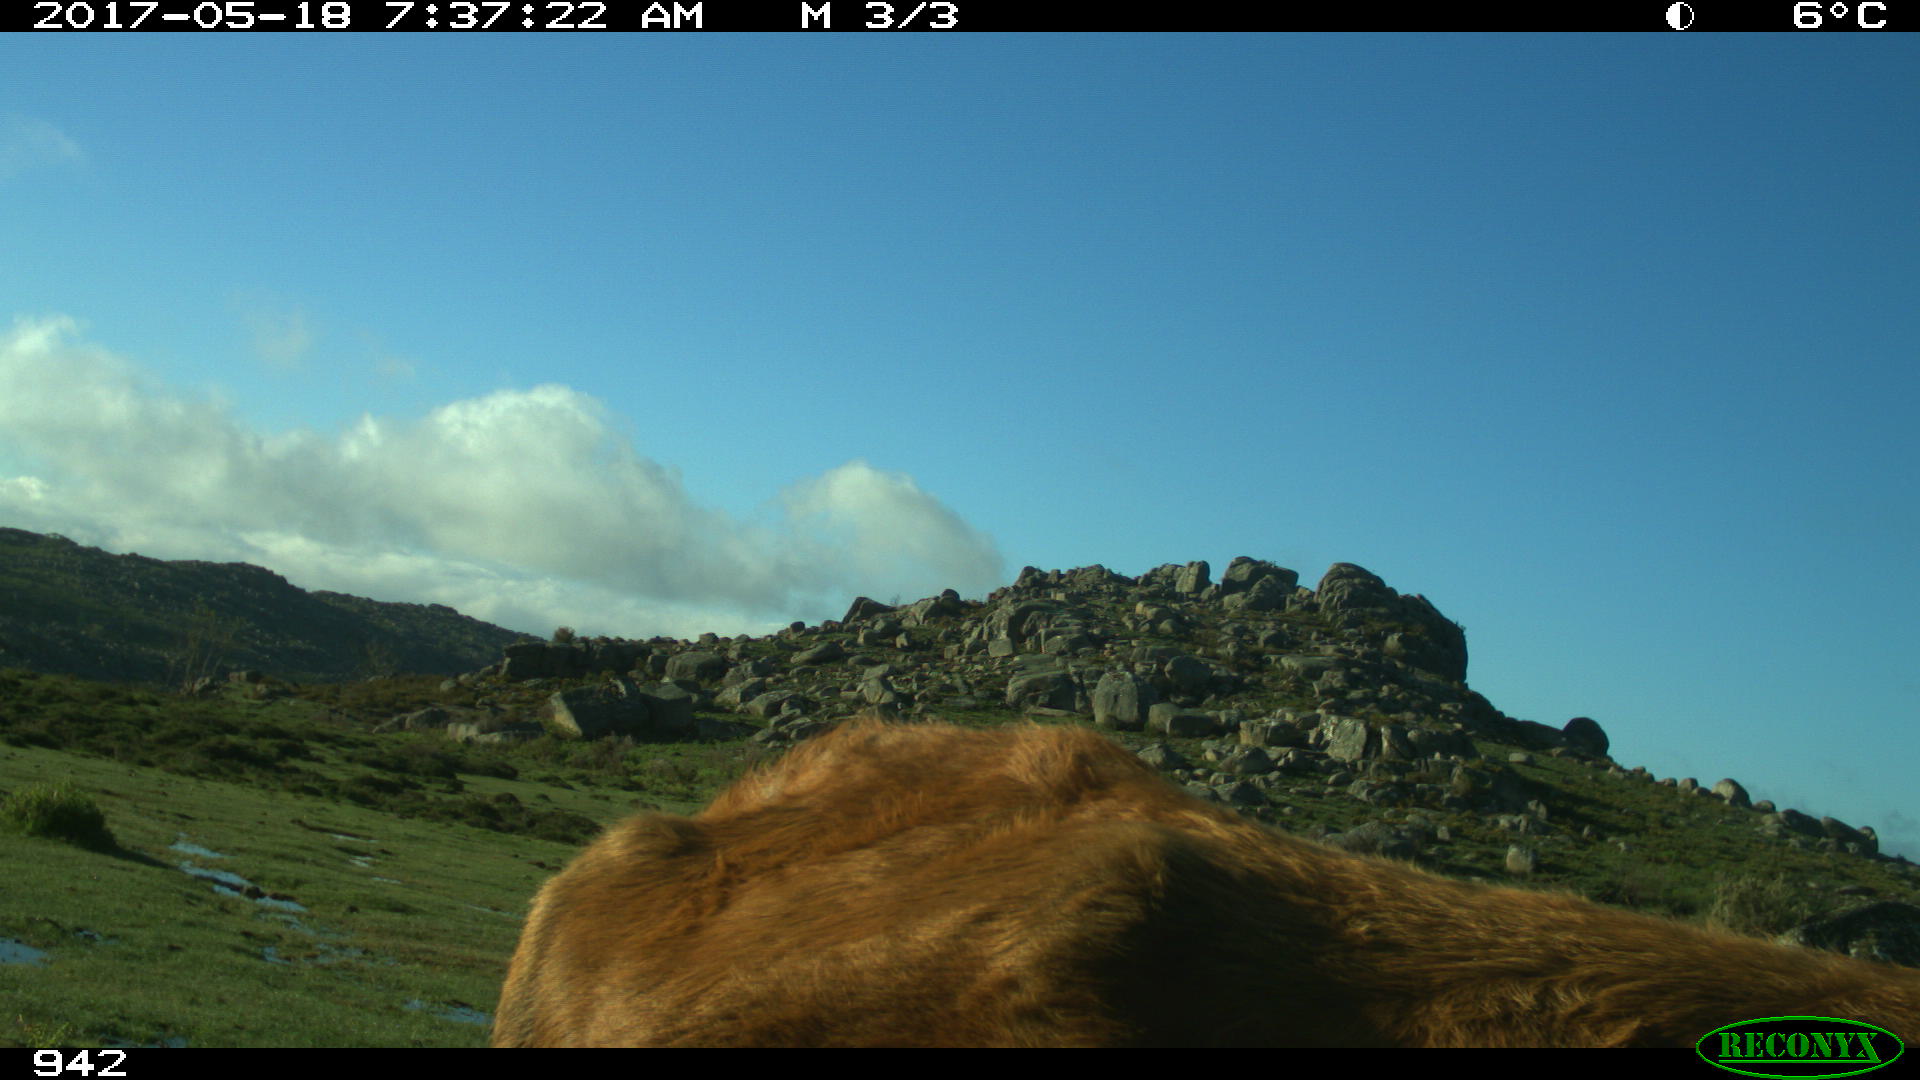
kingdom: Animalia
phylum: Chordata
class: Mammalia
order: Artiodactyla
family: Bovidae
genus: Bos
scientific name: Bos taurus
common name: Domesticated cattle
